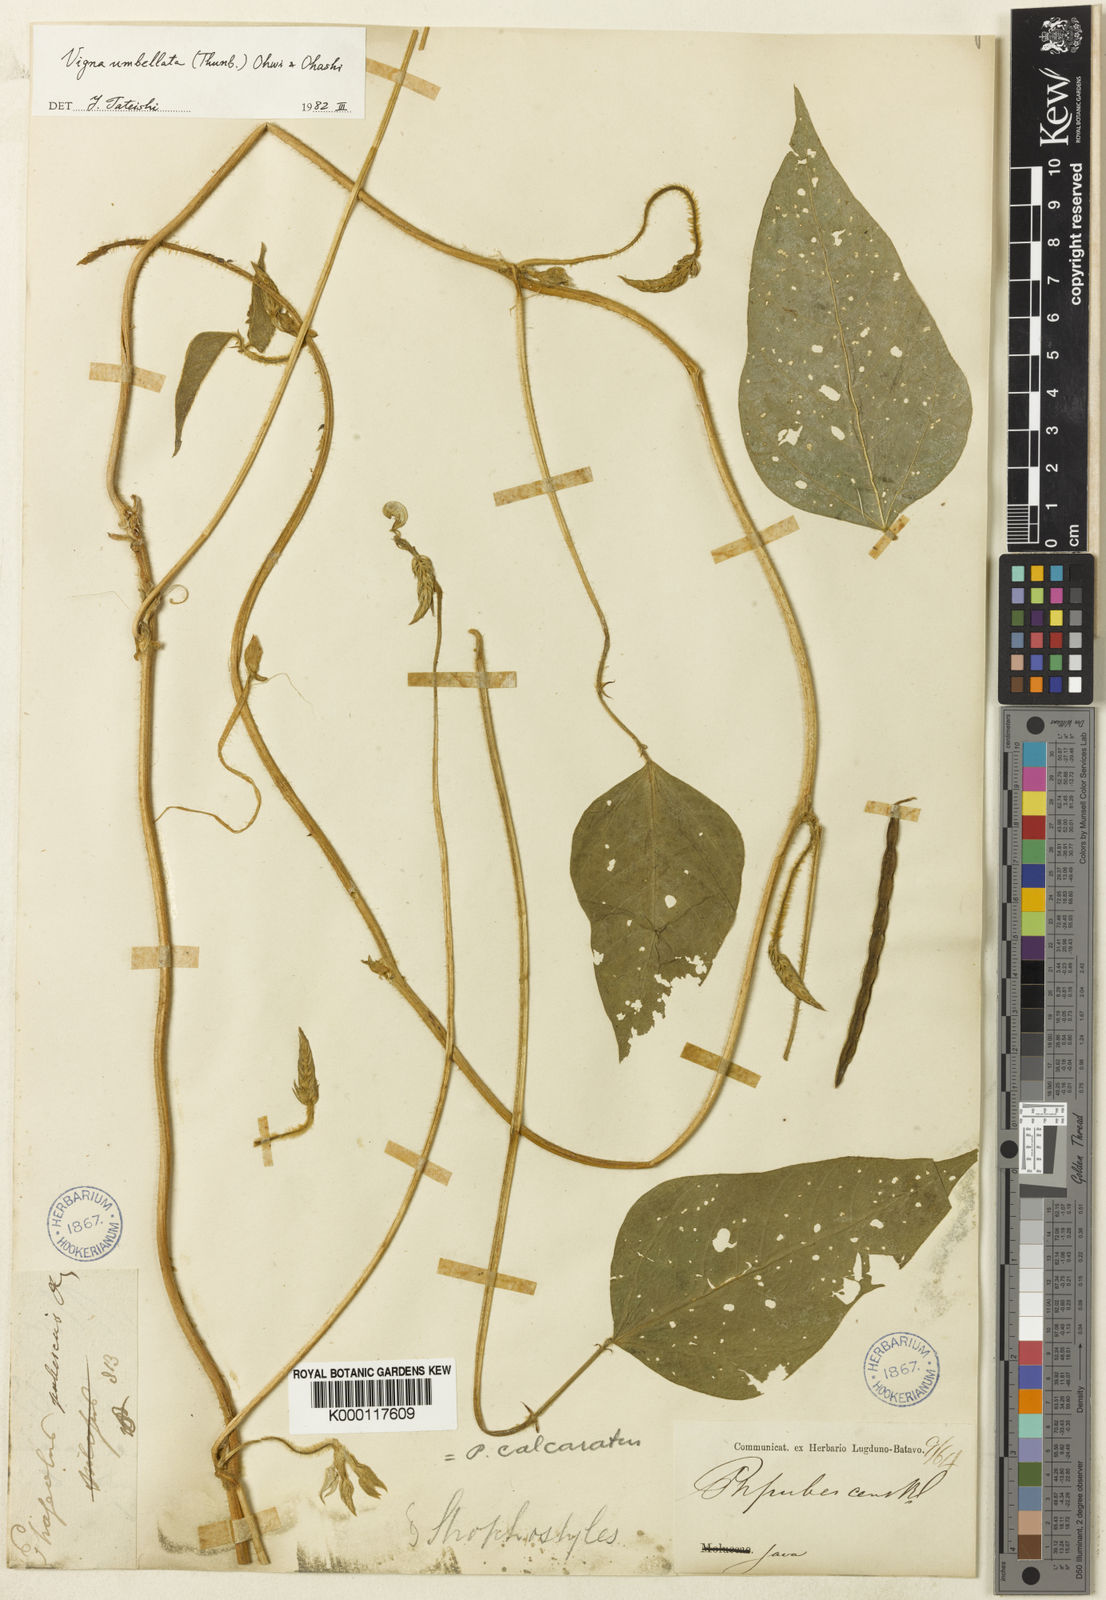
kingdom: Plantae
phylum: Tracheophyta
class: Magnoliopsida
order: Fabales
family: Fabaceae
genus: Vigna
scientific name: Vigna
